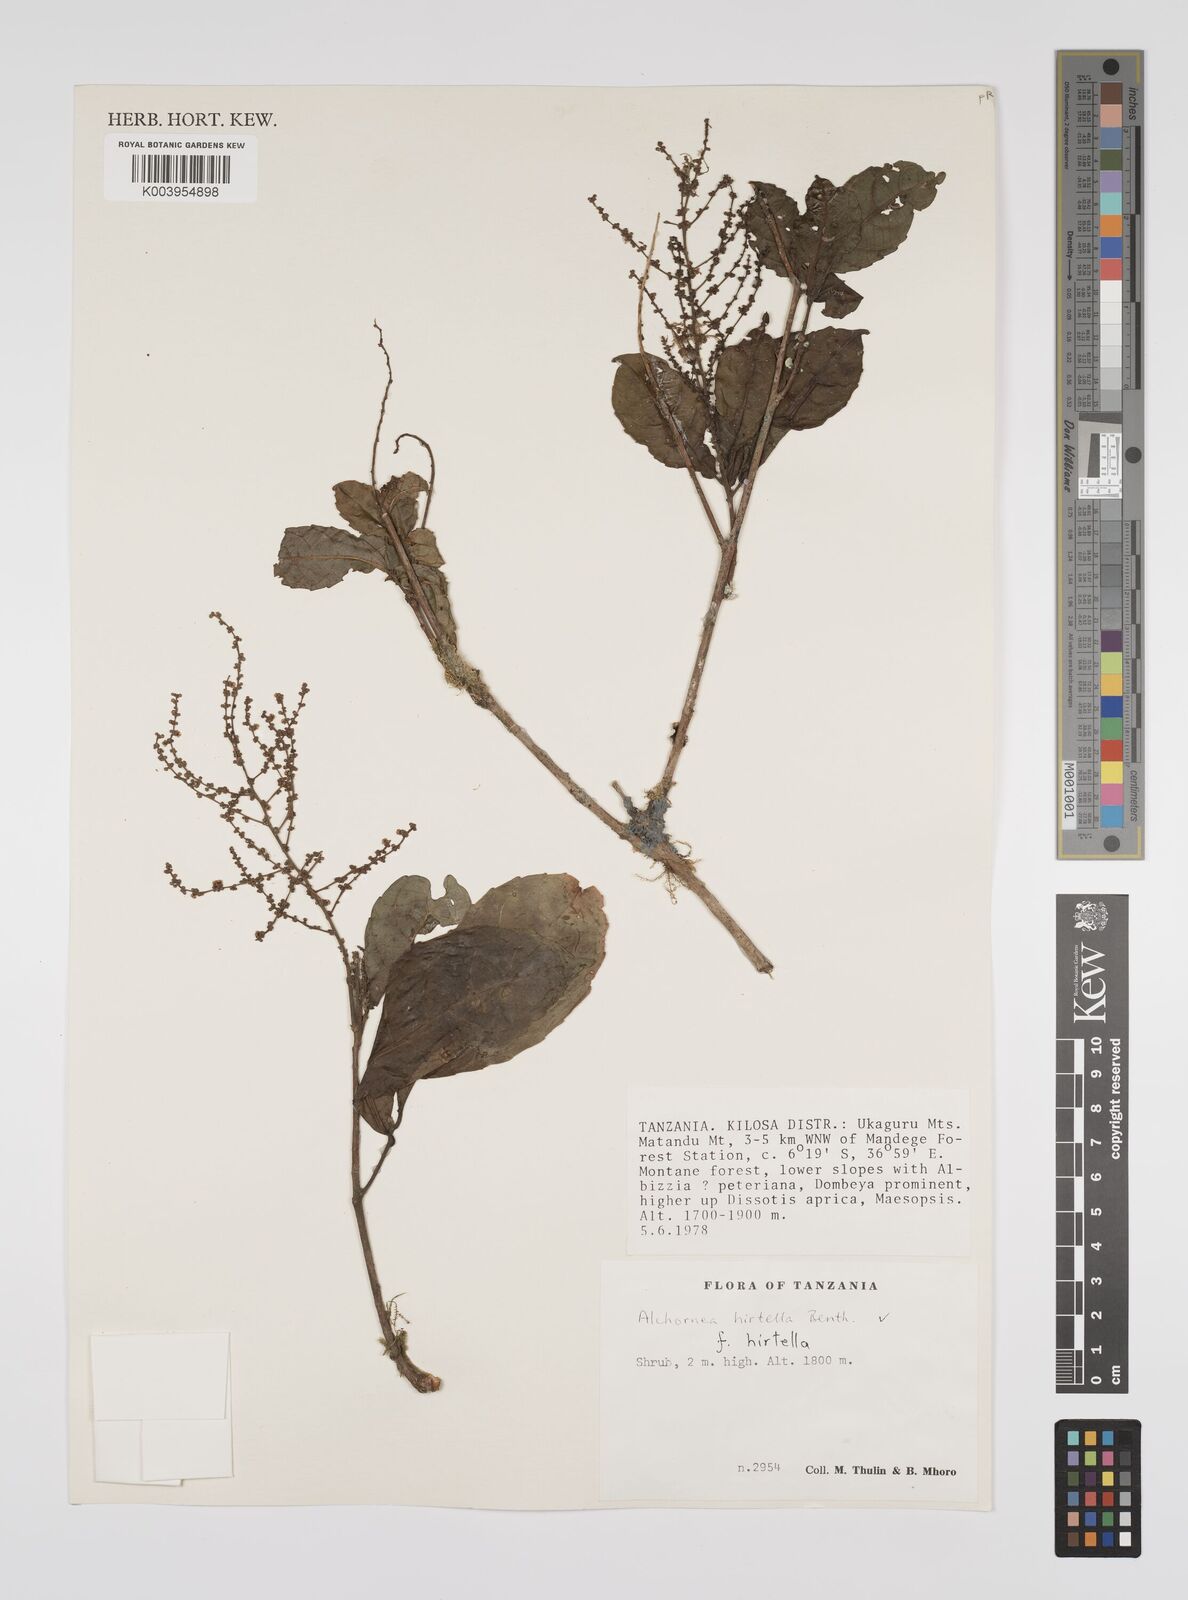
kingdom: Plantae
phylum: Tracheophyta
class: Magnoliopsida
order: Malpighiales
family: Euphorbiaceae
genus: Alchornea
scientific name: Alchornea hirtella
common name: Forest bead-string
